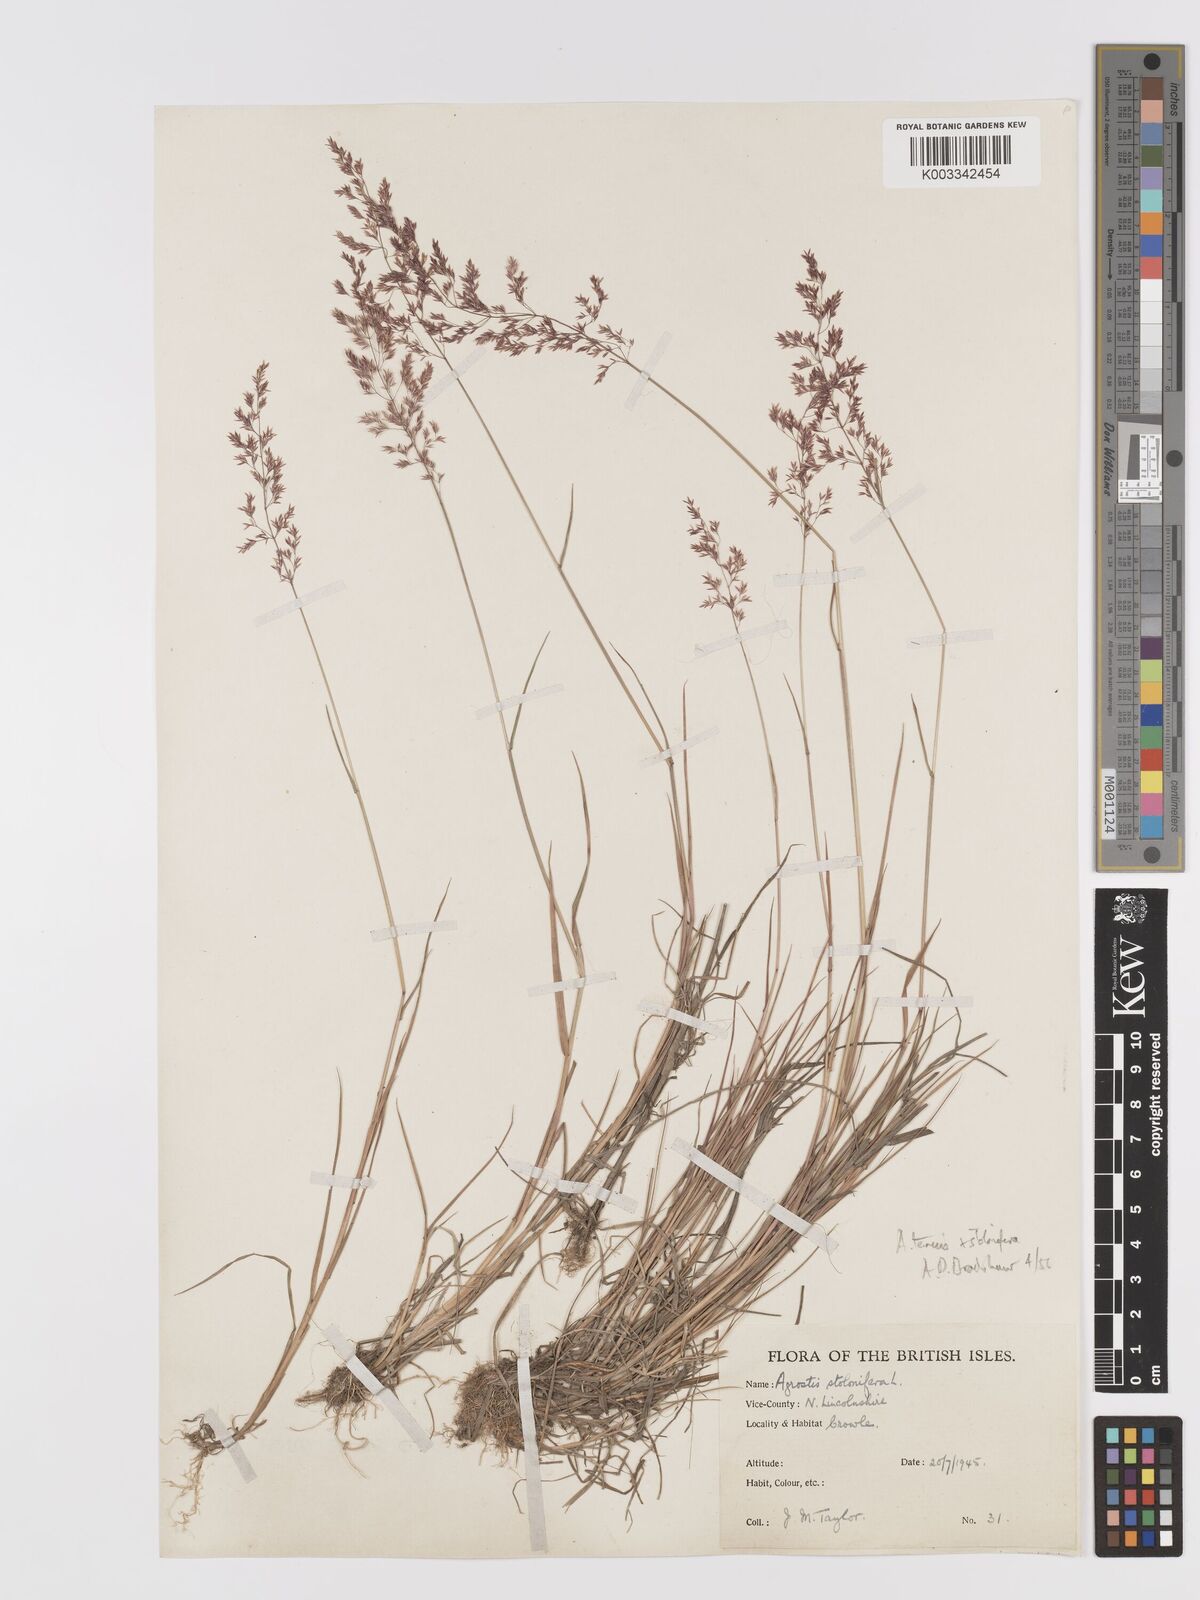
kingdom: Plantae
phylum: Tracheophyta
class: Liliopsida
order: Poales
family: Poaceae
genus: Agrostis
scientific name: Agrostis capillaris
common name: Colonial bentgrass
